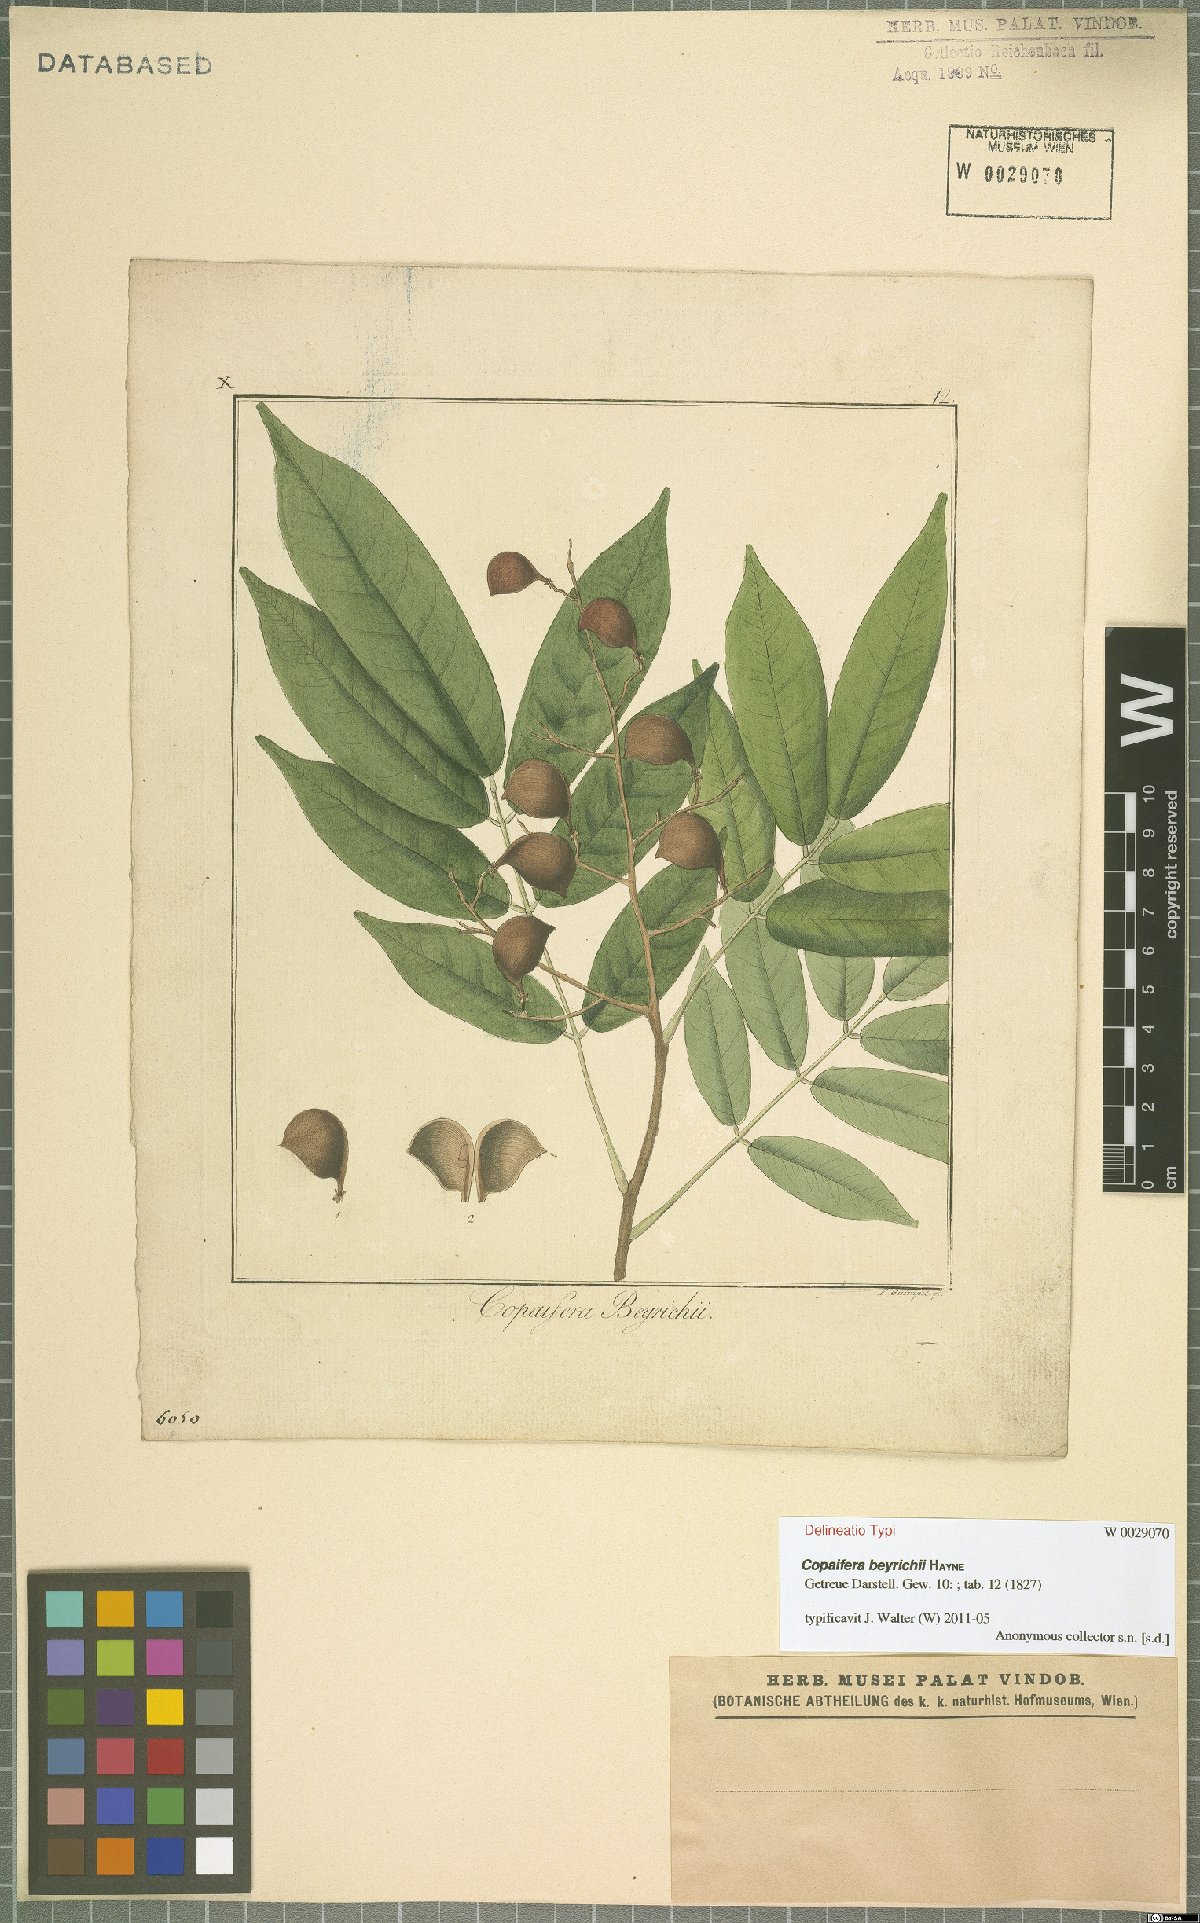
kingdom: Plantae
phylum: Tracheophyta
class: Magnoliopsida
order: Fabales
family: Fabaceae
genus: Copaifera
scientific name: Copaifera guianensis
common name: Copaiba
